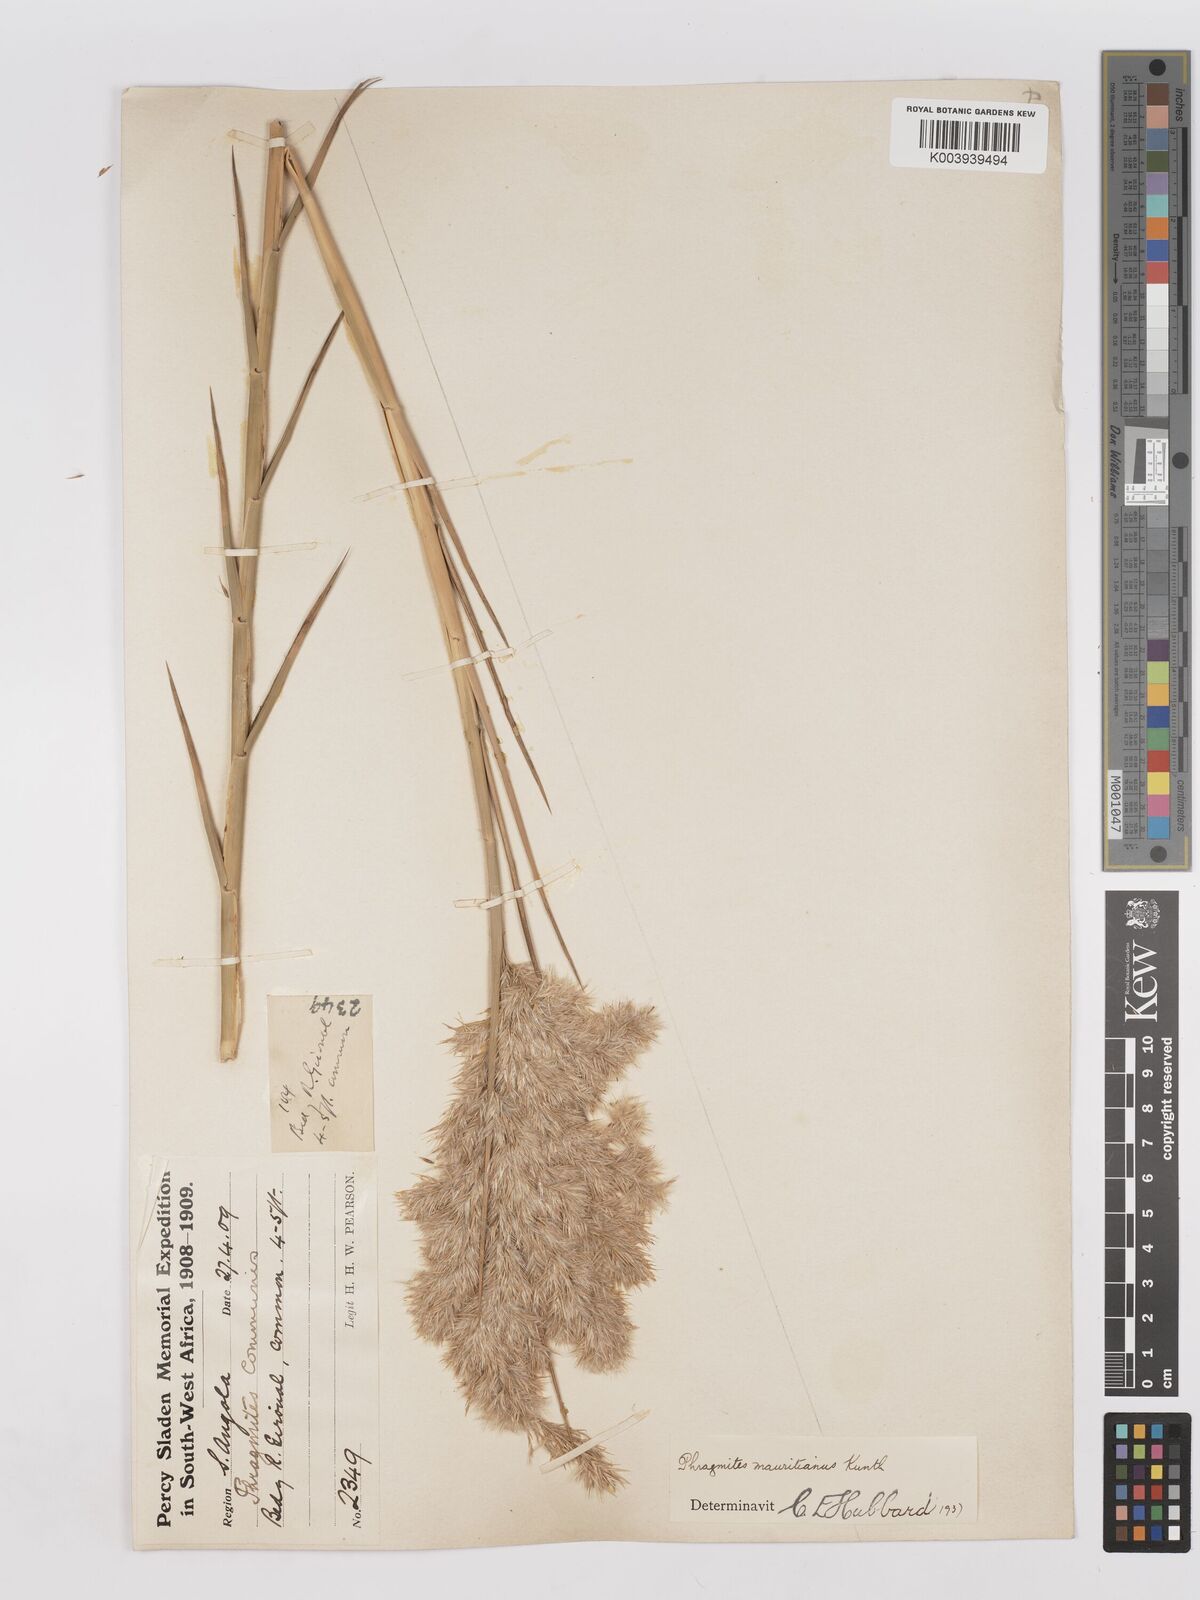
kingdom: Plantae
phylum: Tracheophyta
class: Liliopsida
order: Poales
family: Poaceae
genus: Phragmites
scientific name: Phragmites mauritianus
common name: Reed grass
